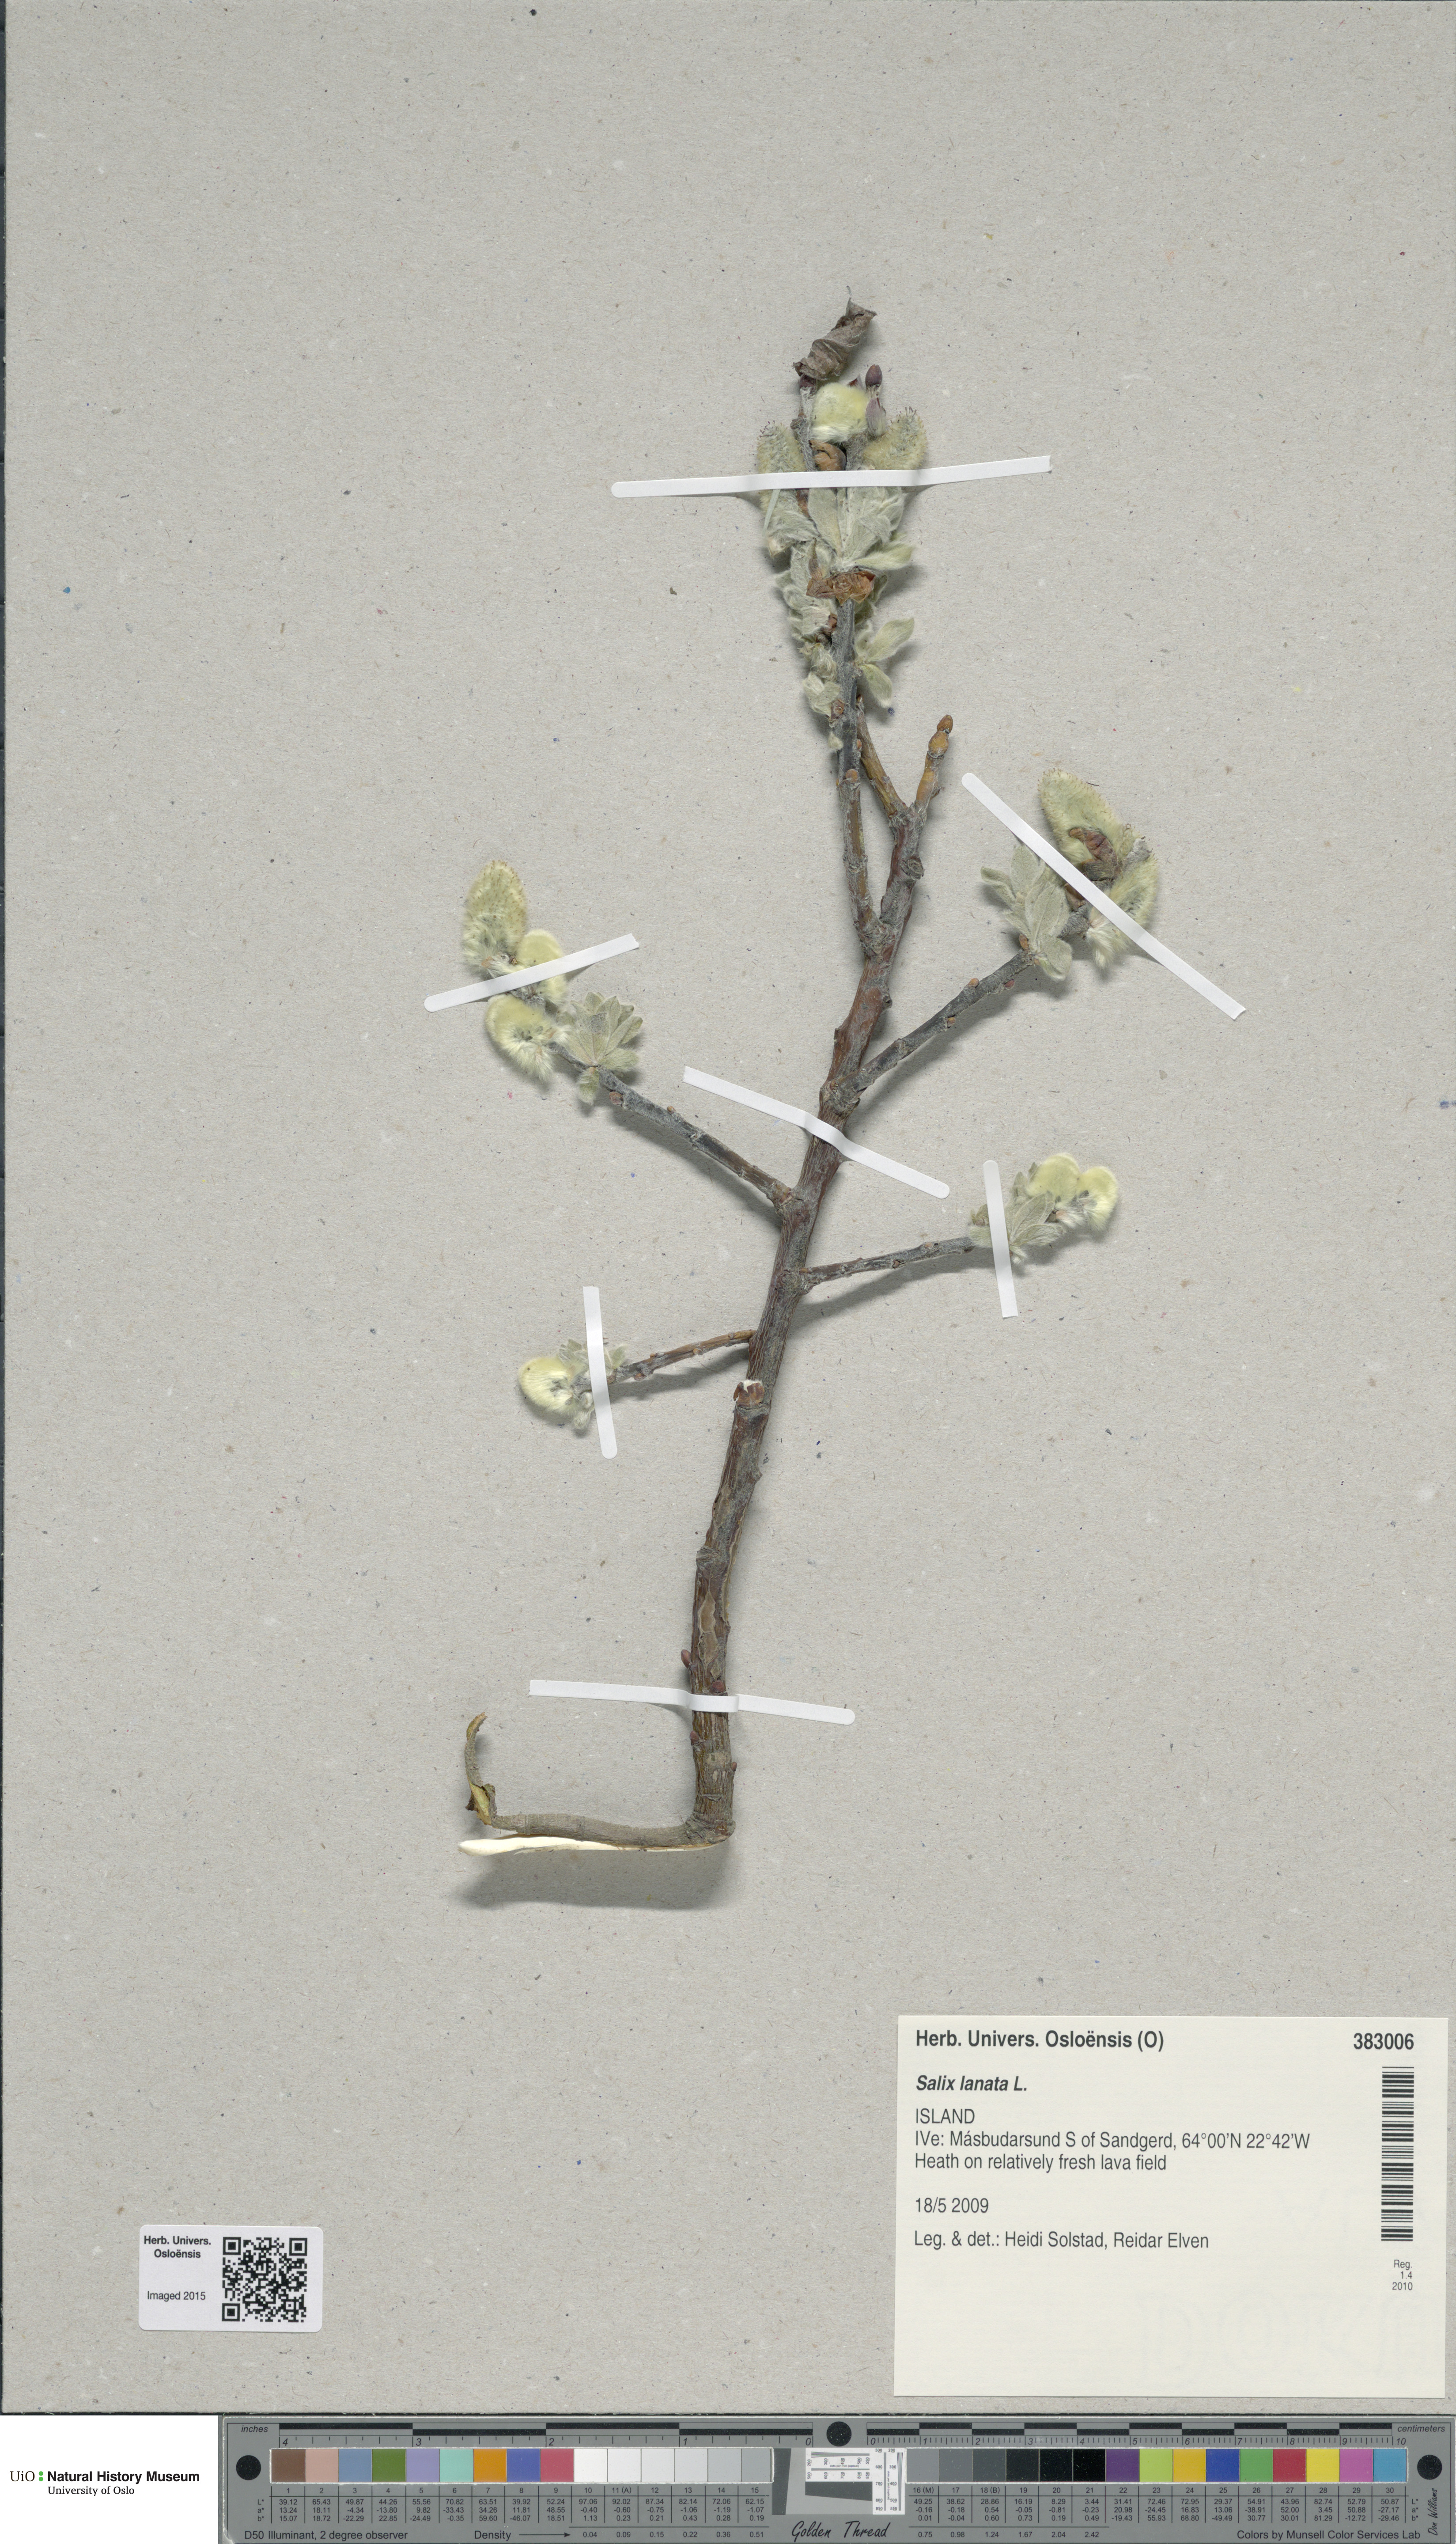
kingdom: Plantae
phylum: Tracheophyta
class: Magnoliopsida
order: Malpighiales
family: Salicaceae
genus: Salix
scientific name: Salix lanata
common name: Woolly willow
